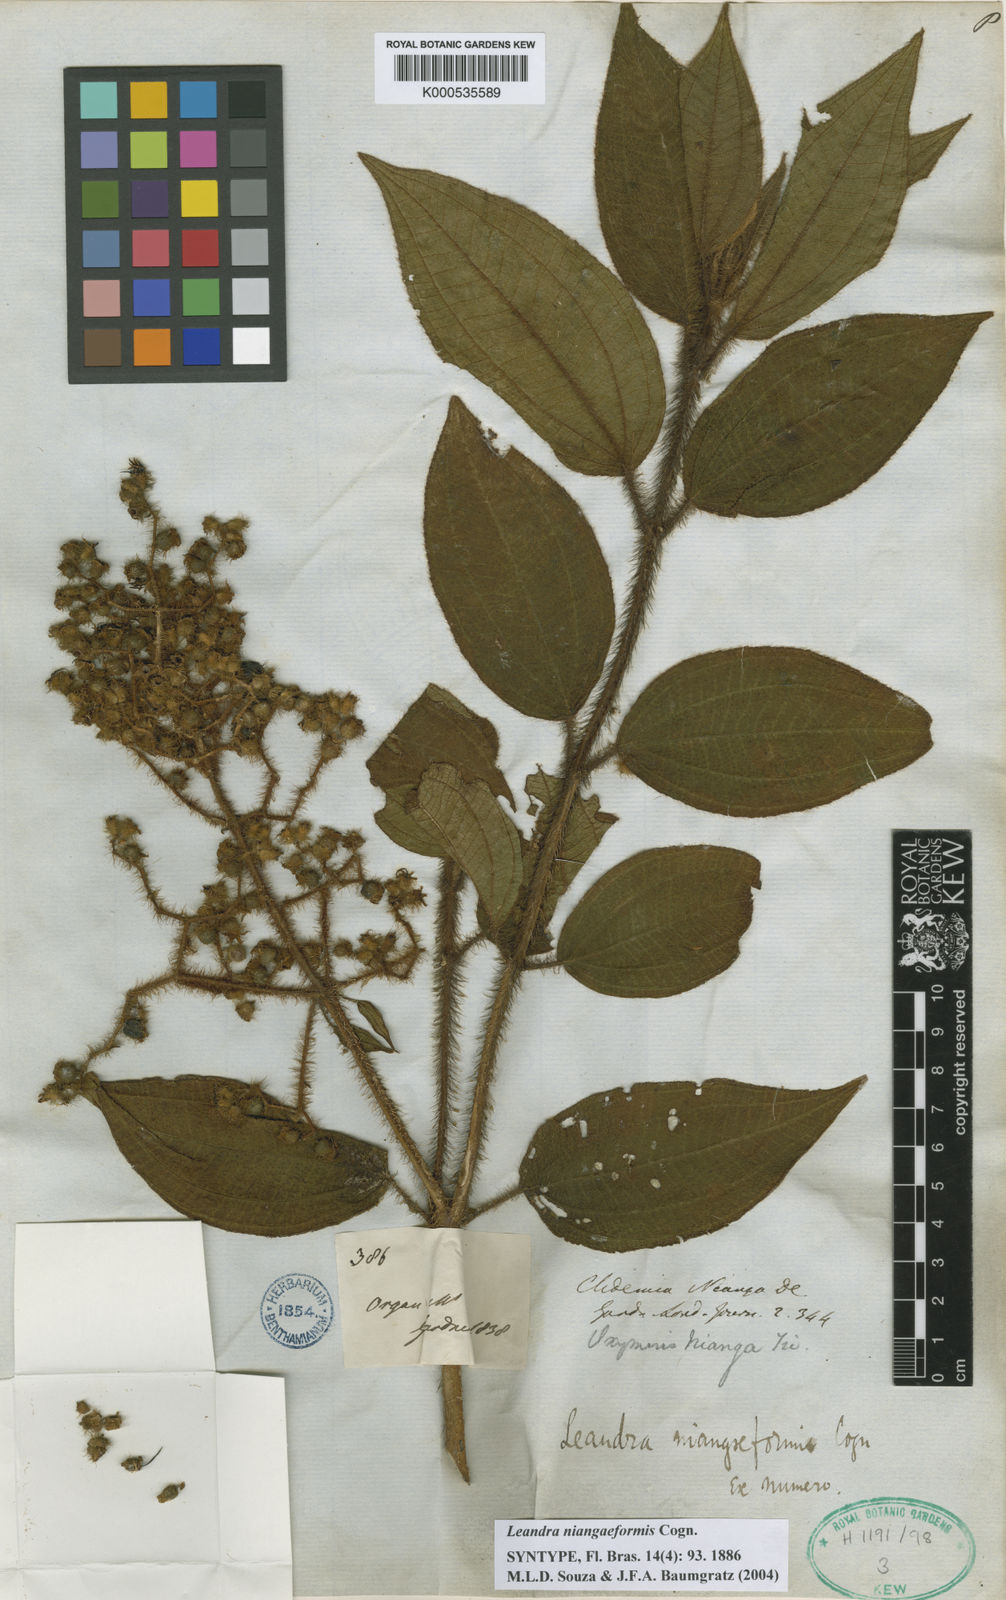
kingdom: Plantae
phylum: Tracheophyta
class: Magnoliopsida
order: Myrtales
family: Melastomataceae
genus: Miconia
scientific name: Miconia niangaeformis
